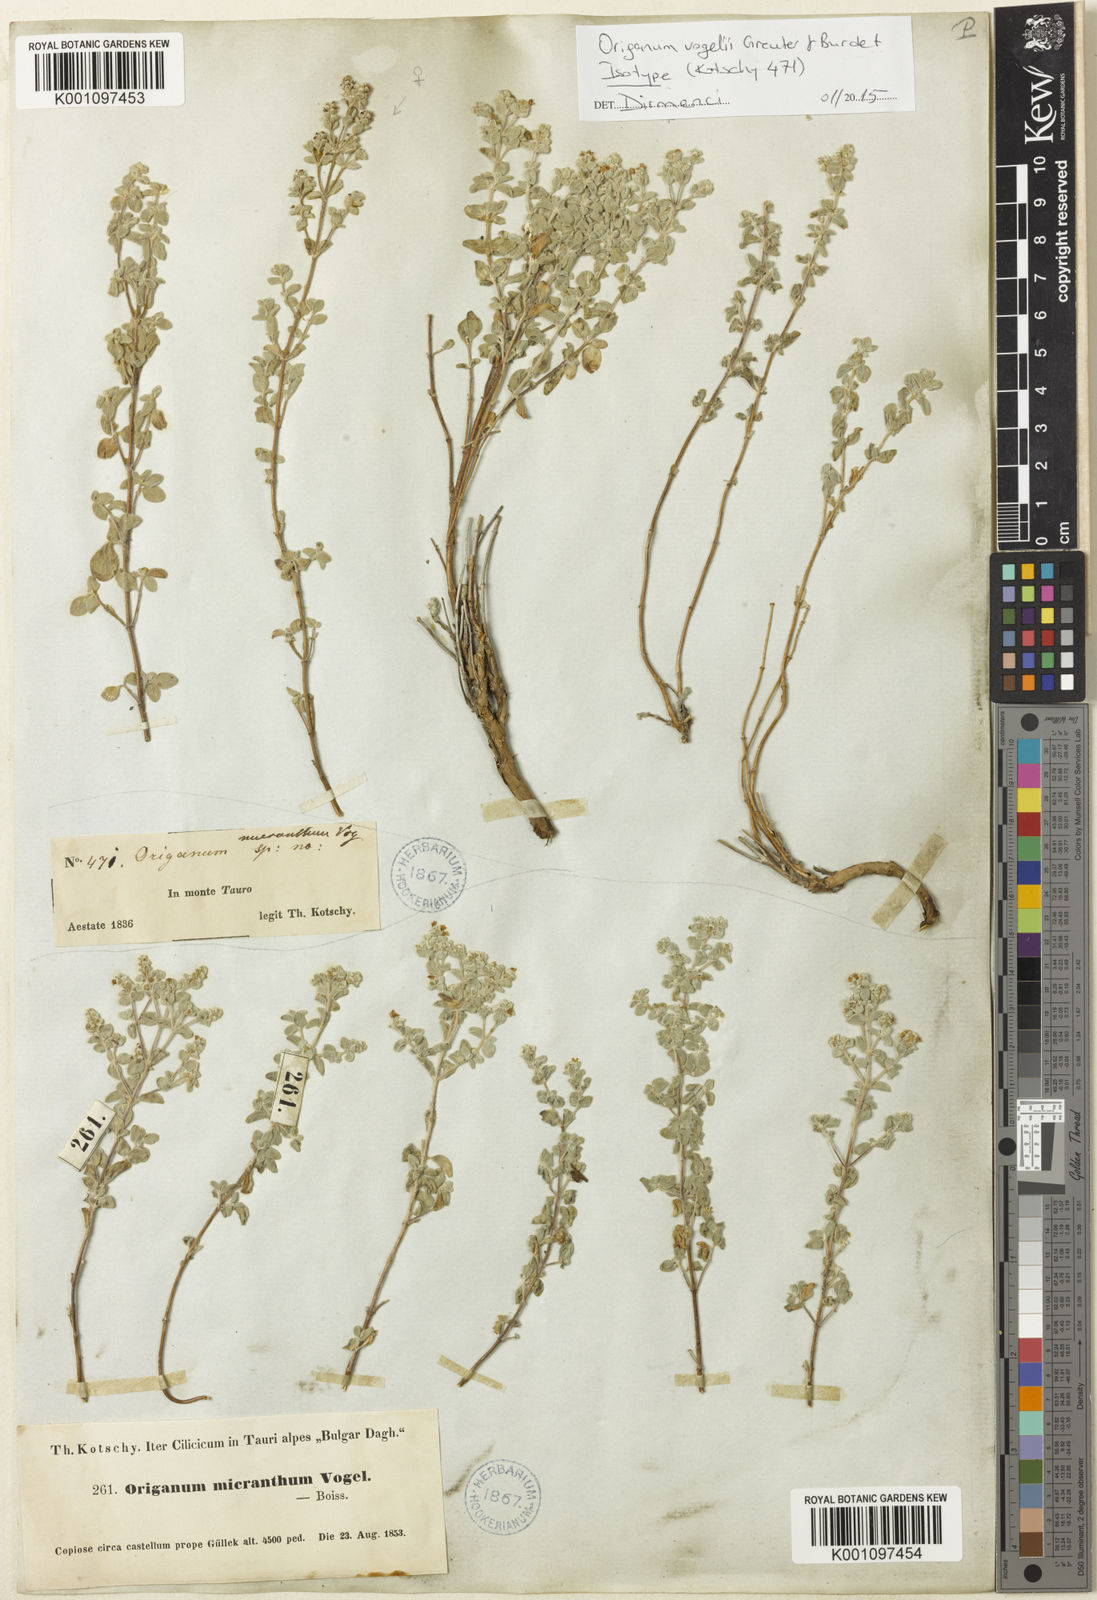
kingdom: Plantae
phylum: Tracheophyta
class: Magnoliopsida
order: Lamiales
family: Lamiaceae
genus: Origanum
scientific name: Origanum vogelii
